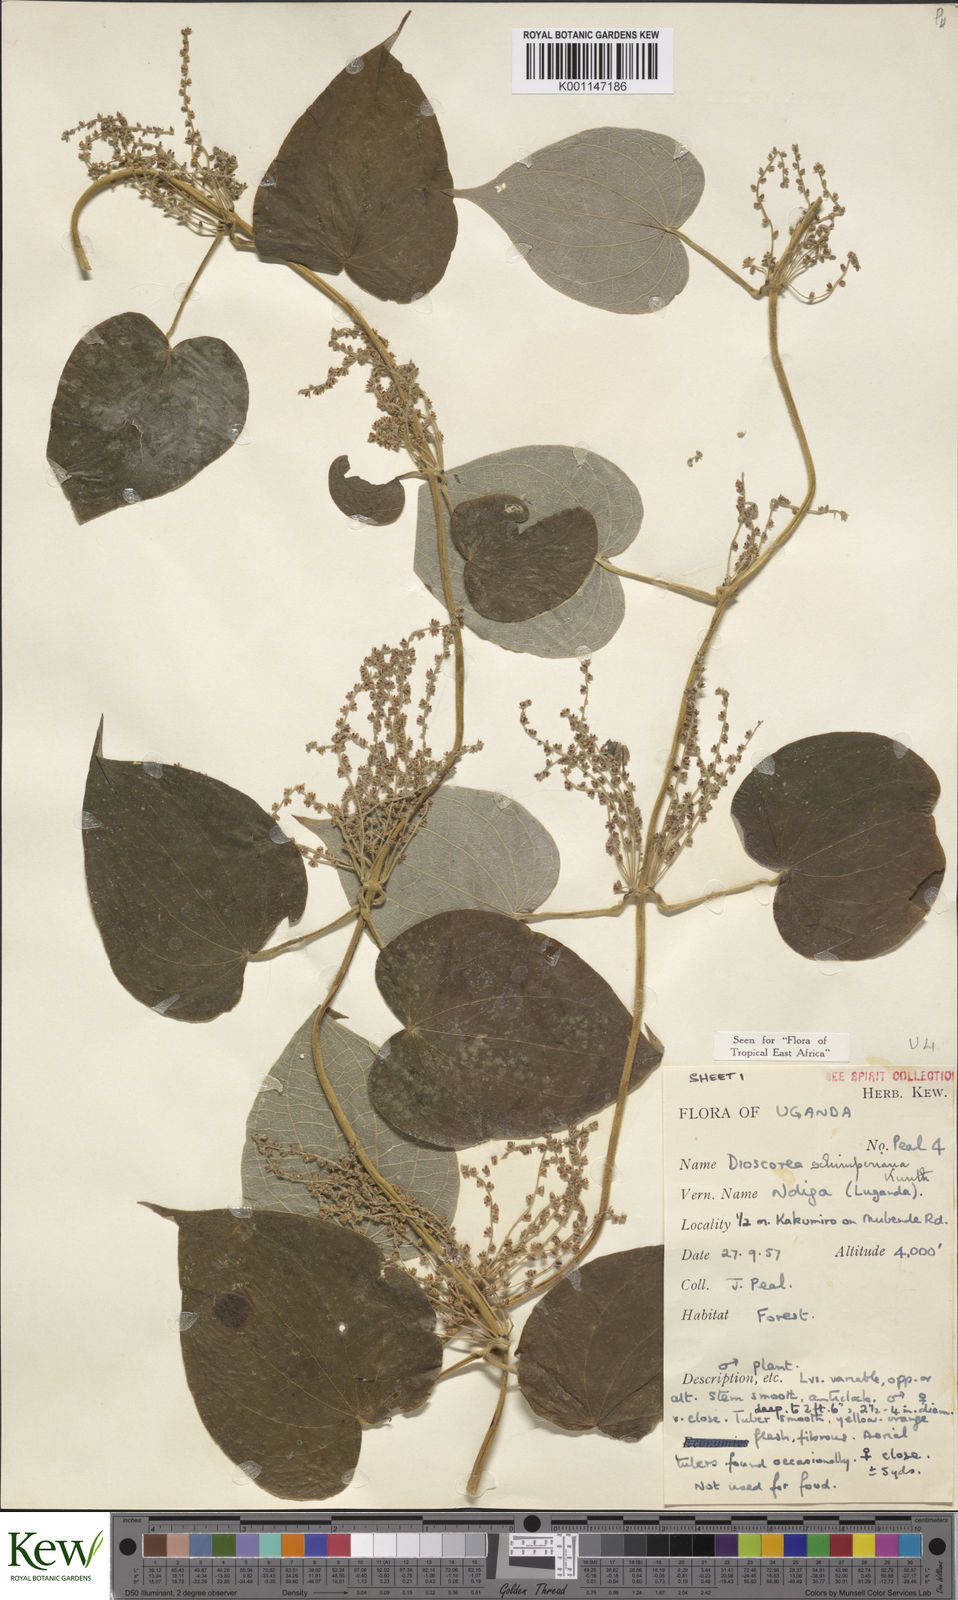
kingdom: Plantae
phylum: Tracheophyta
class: Liliopsida
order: Dioscoreales
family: Dioscoreaceae
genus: Dioscorea
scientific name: Dioscorea schimperiana
